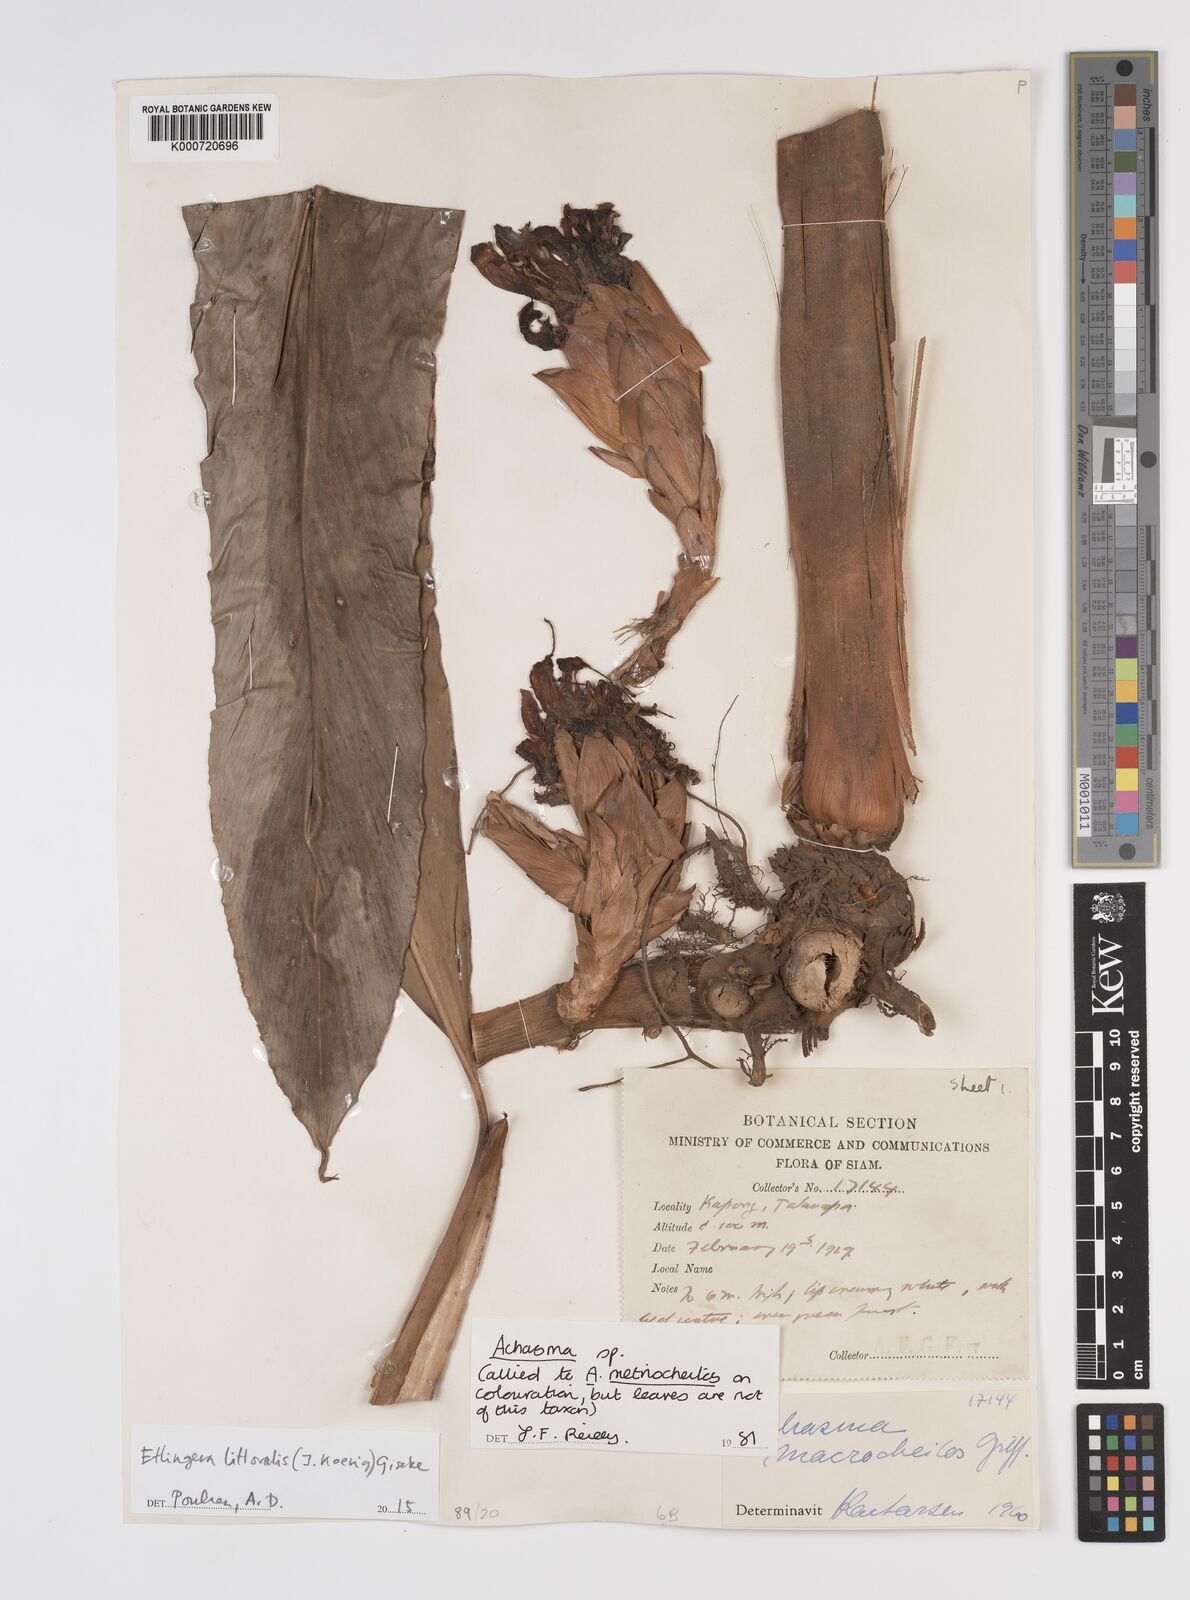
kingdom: Plantae
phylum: Tracheophyta
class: Liliopsida
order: Zingiberales
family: Zingiberaceae
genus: Etlingera
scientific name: Etlingera littoralis
